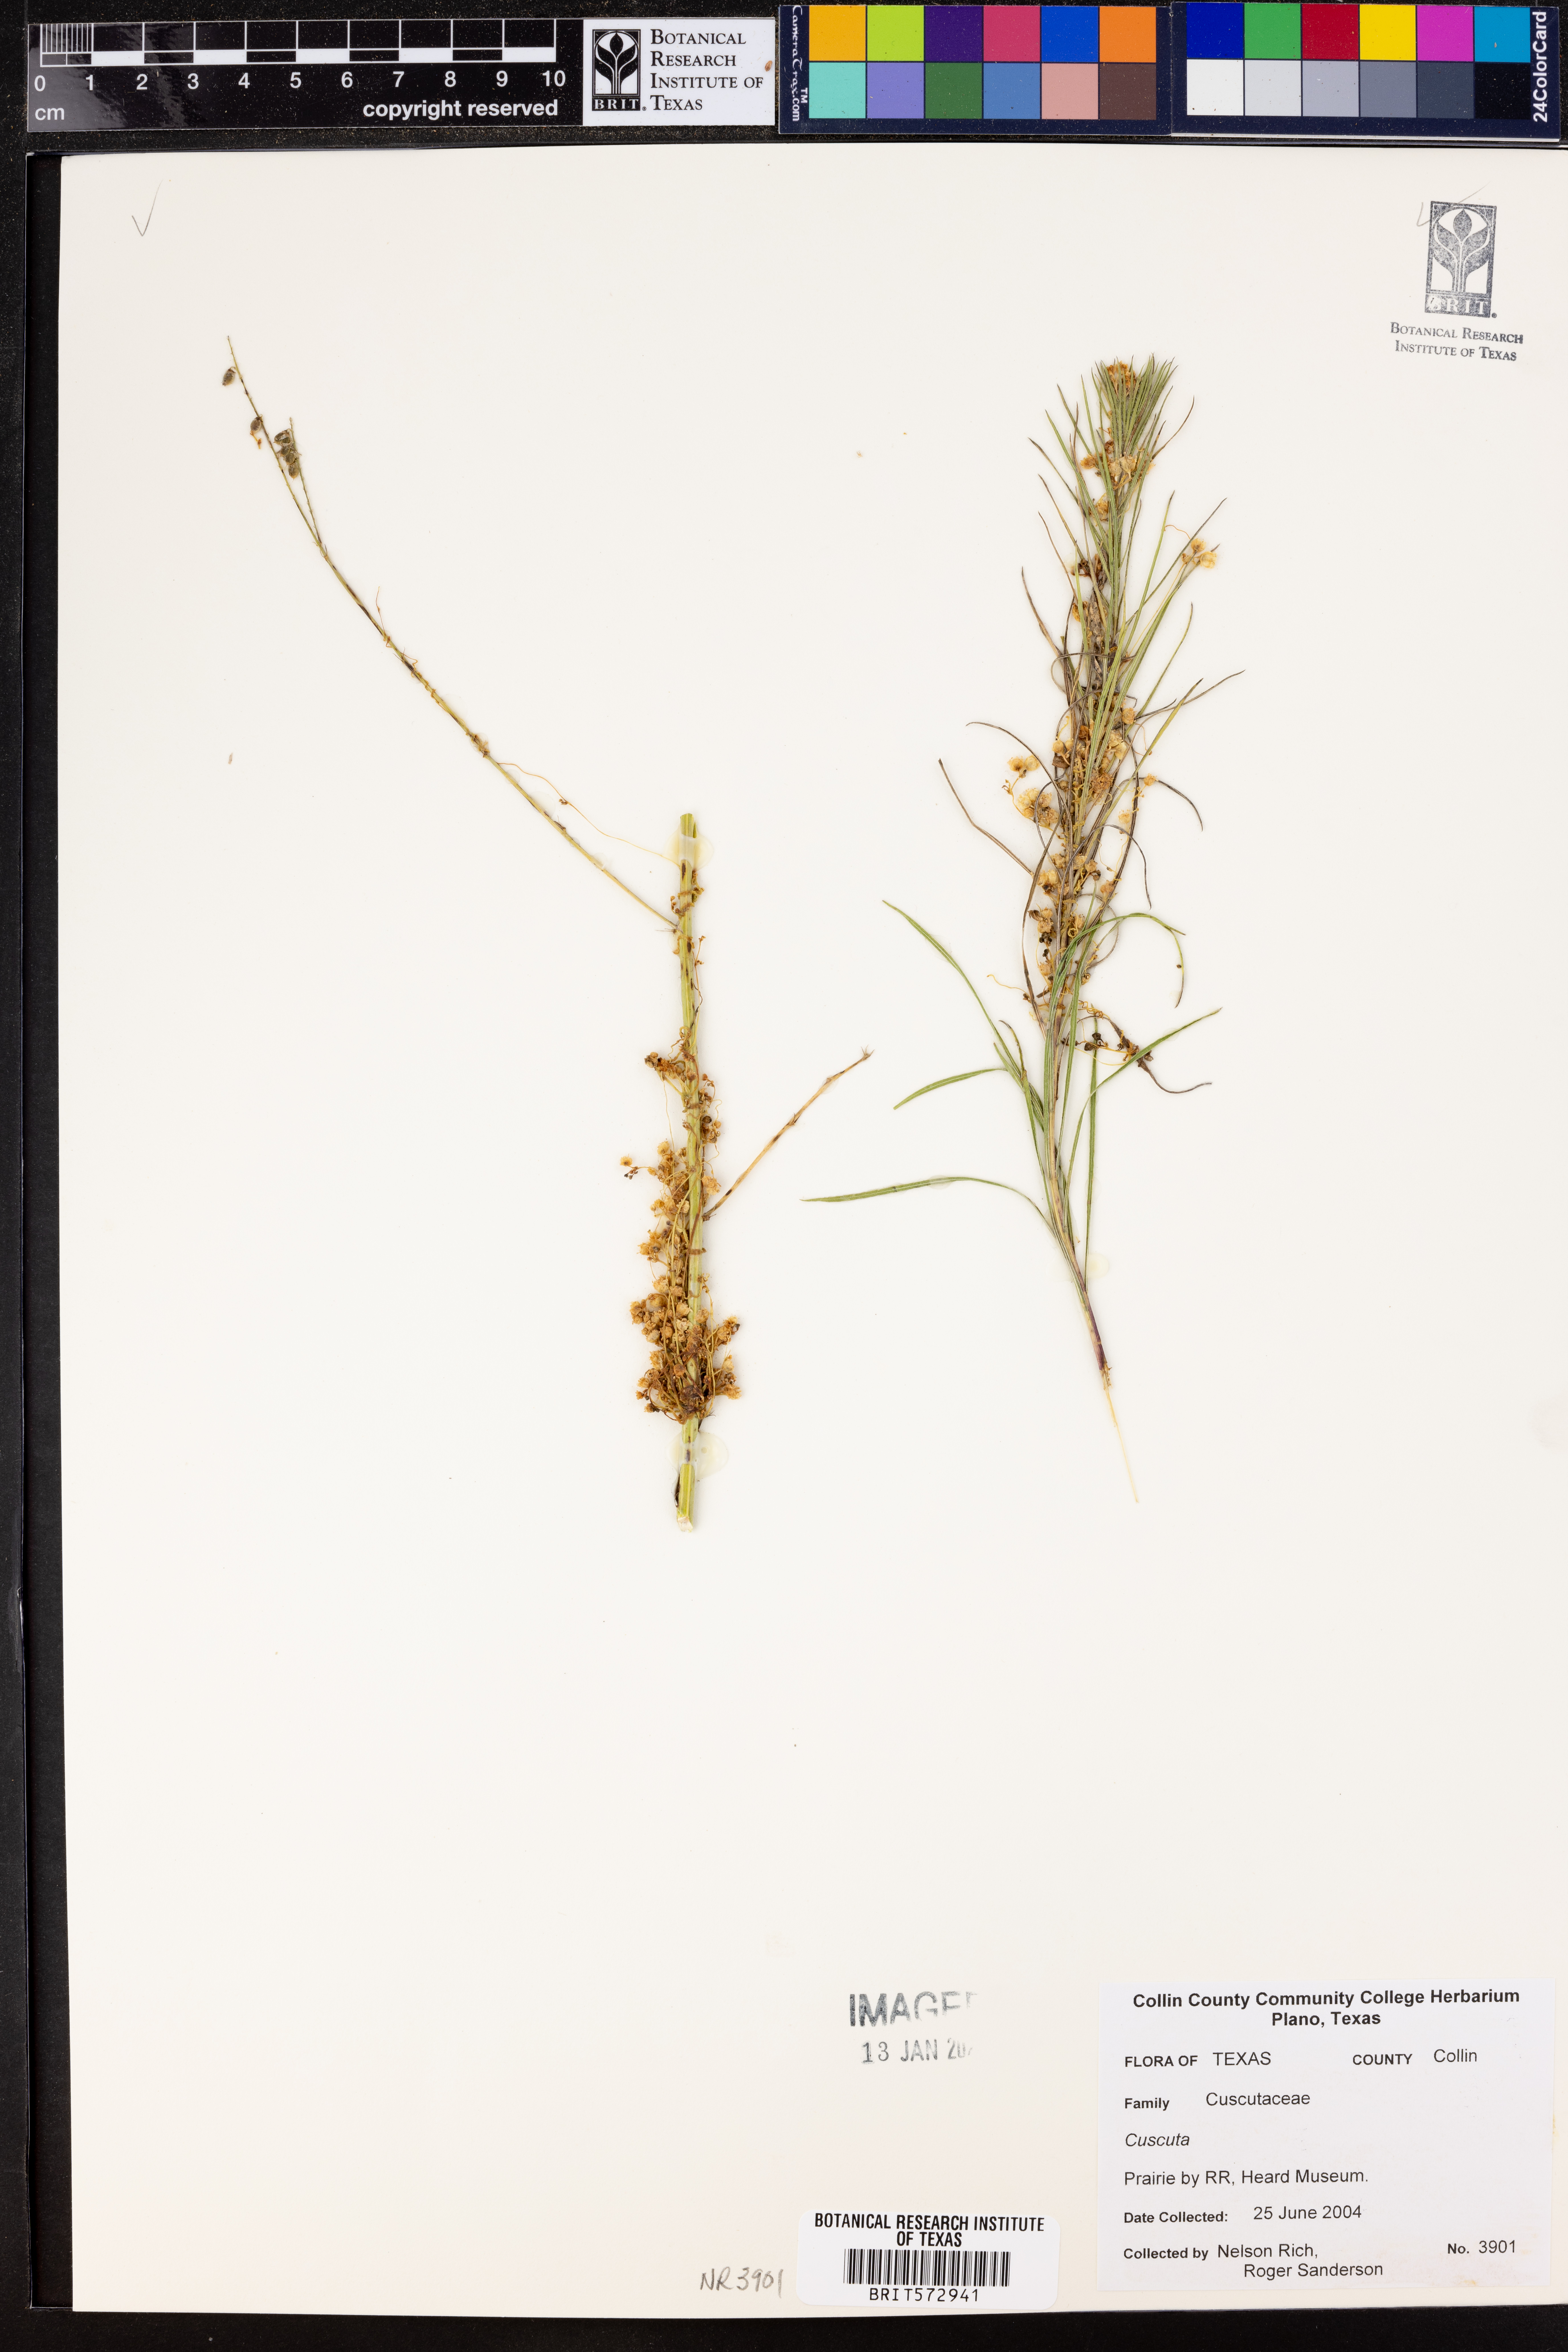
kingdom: Plantae
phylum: Tracheophyta
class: Magnoliopsida
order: Solanales
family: Convolvulaceae
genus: Cuscuta
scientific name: Cuscuta
